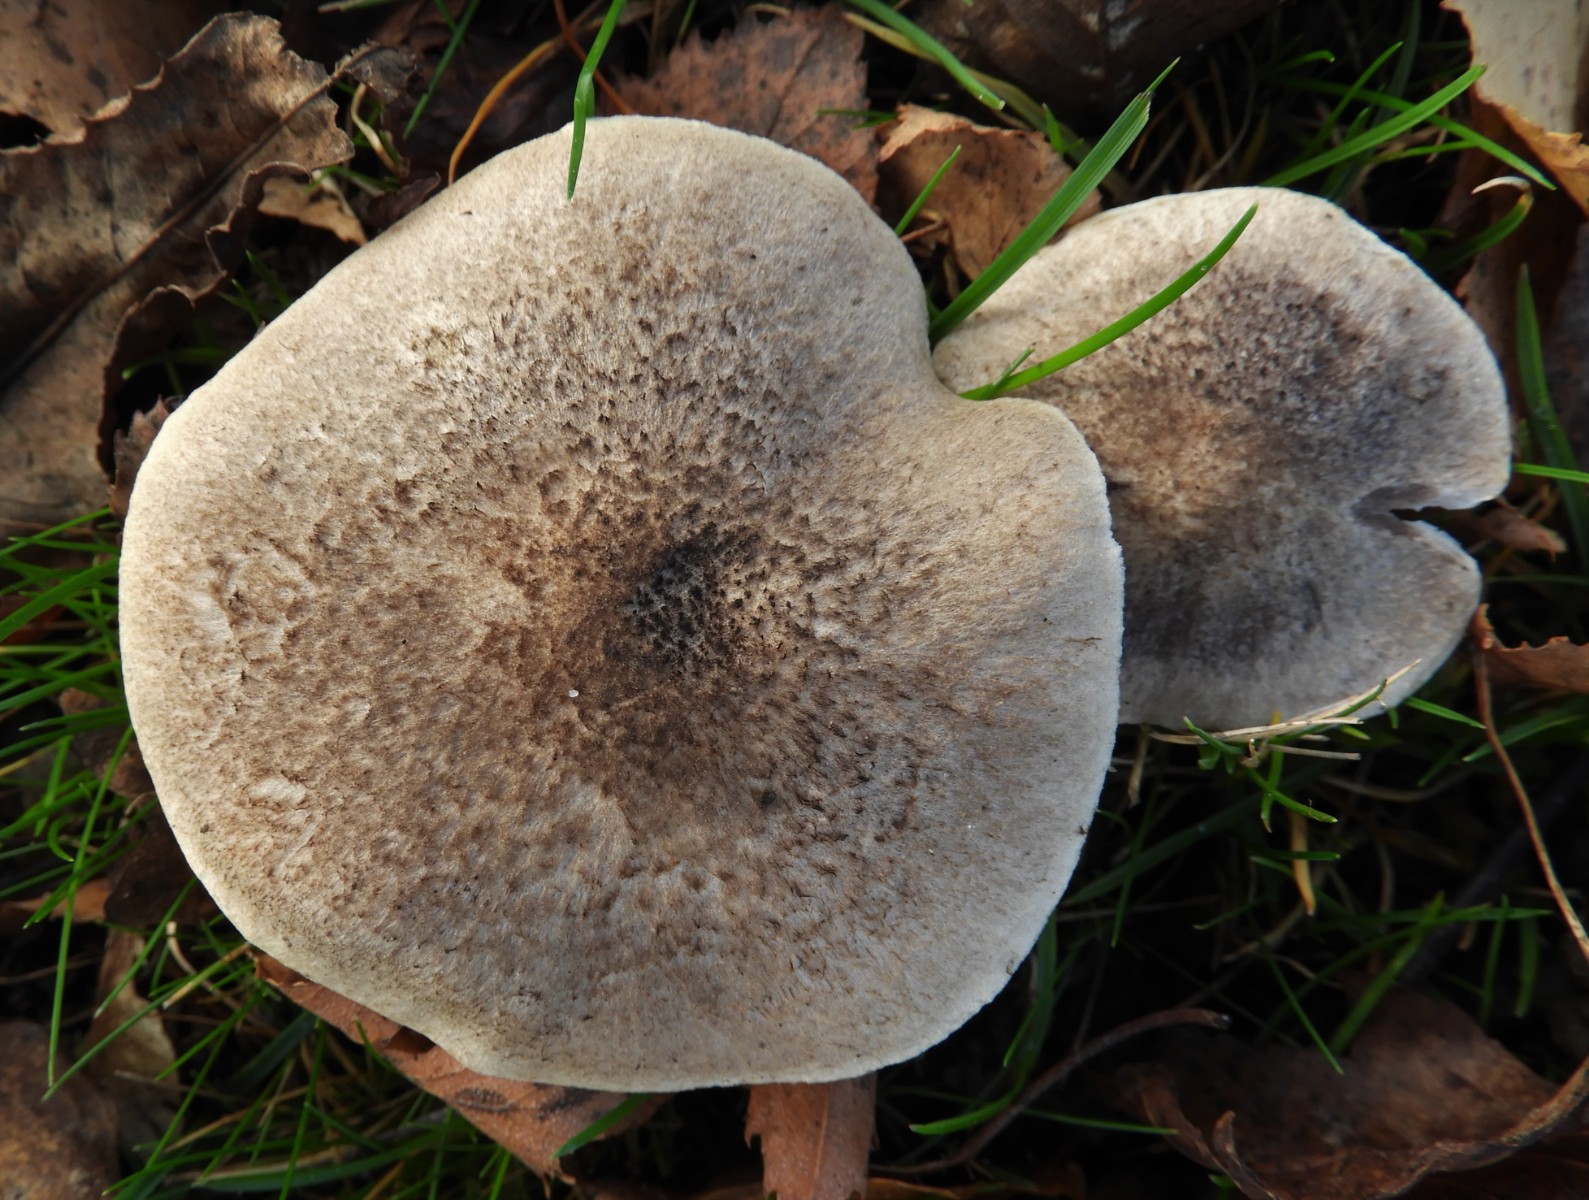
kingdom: Fungi
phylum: Basidiomycota
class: Agaricomycetes
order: Agaricales
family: Tricholomataceae
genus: Tricholoma
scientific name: Tricholoma scalpturatum
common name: gulplettet ridderhat
